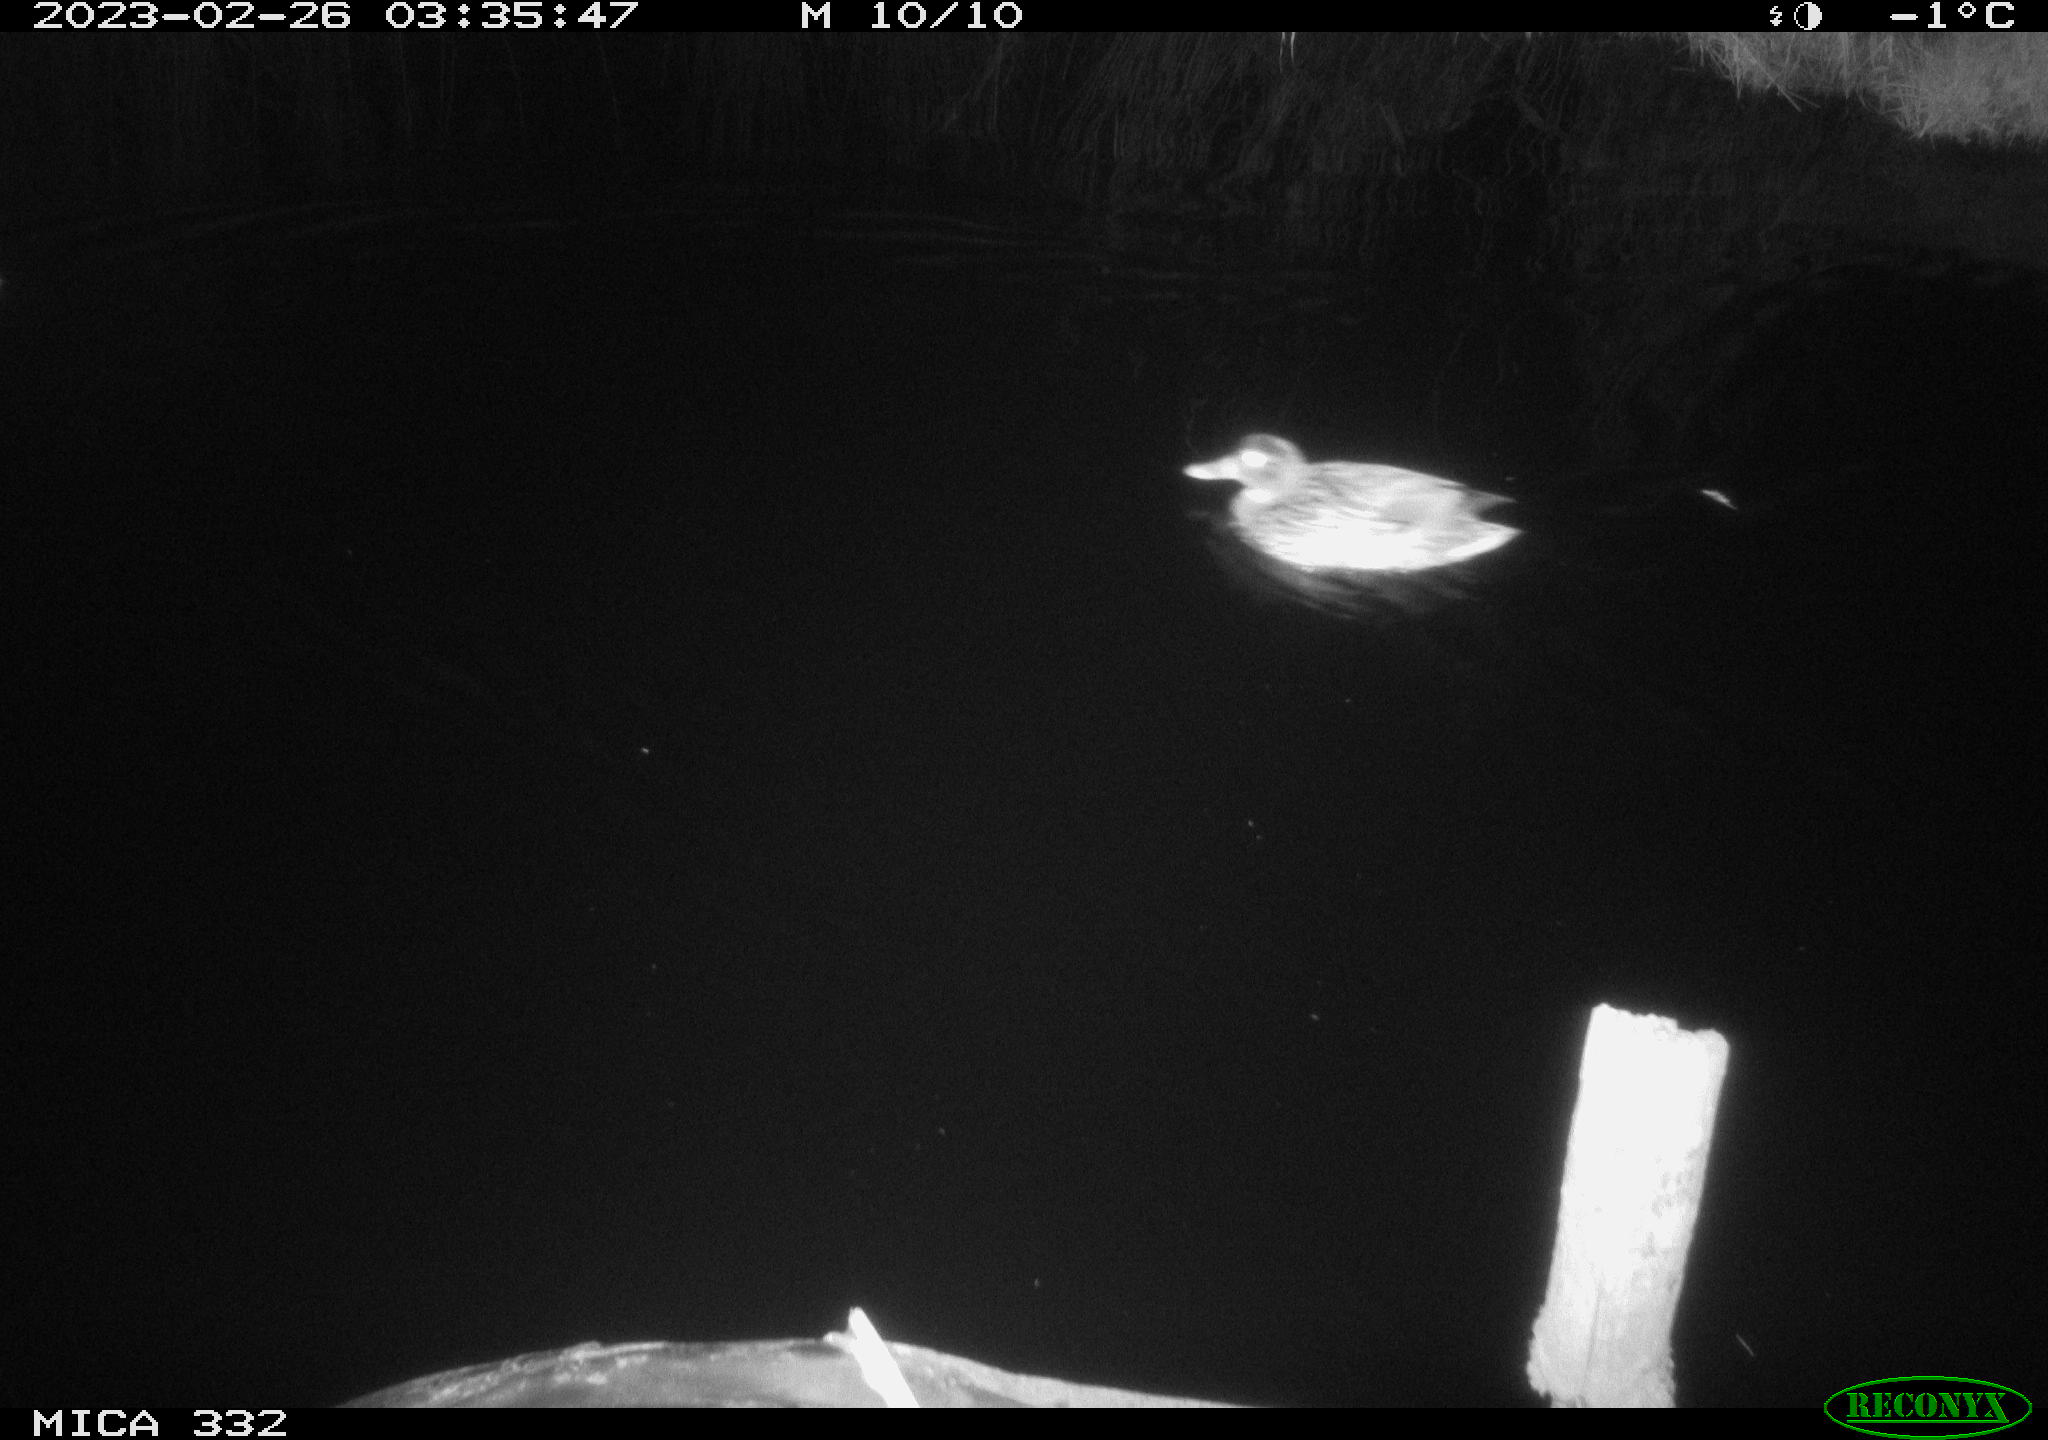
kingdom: Animalia
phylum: Chordata
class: Aves
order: Anseriformes
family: Anatidae
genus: Anas
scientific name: Anas
